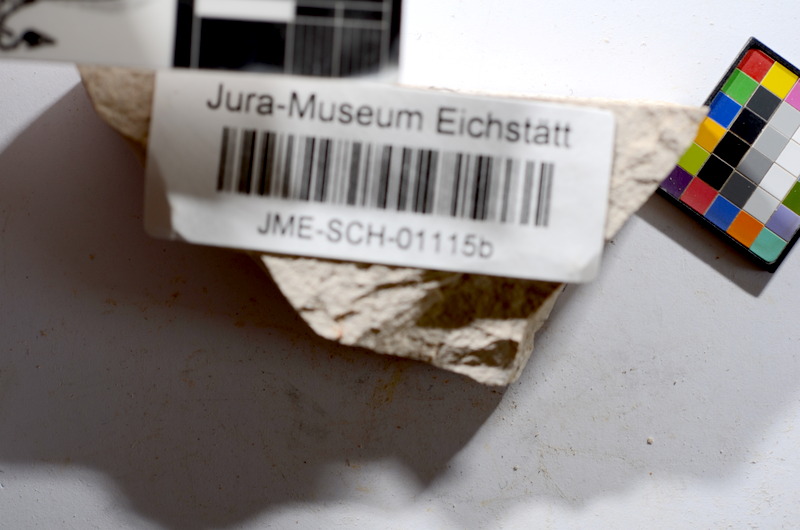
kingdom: Animalia
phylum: Chordata
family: Ascalaboidae
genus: Tharsis
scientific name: Tharsis dubius
